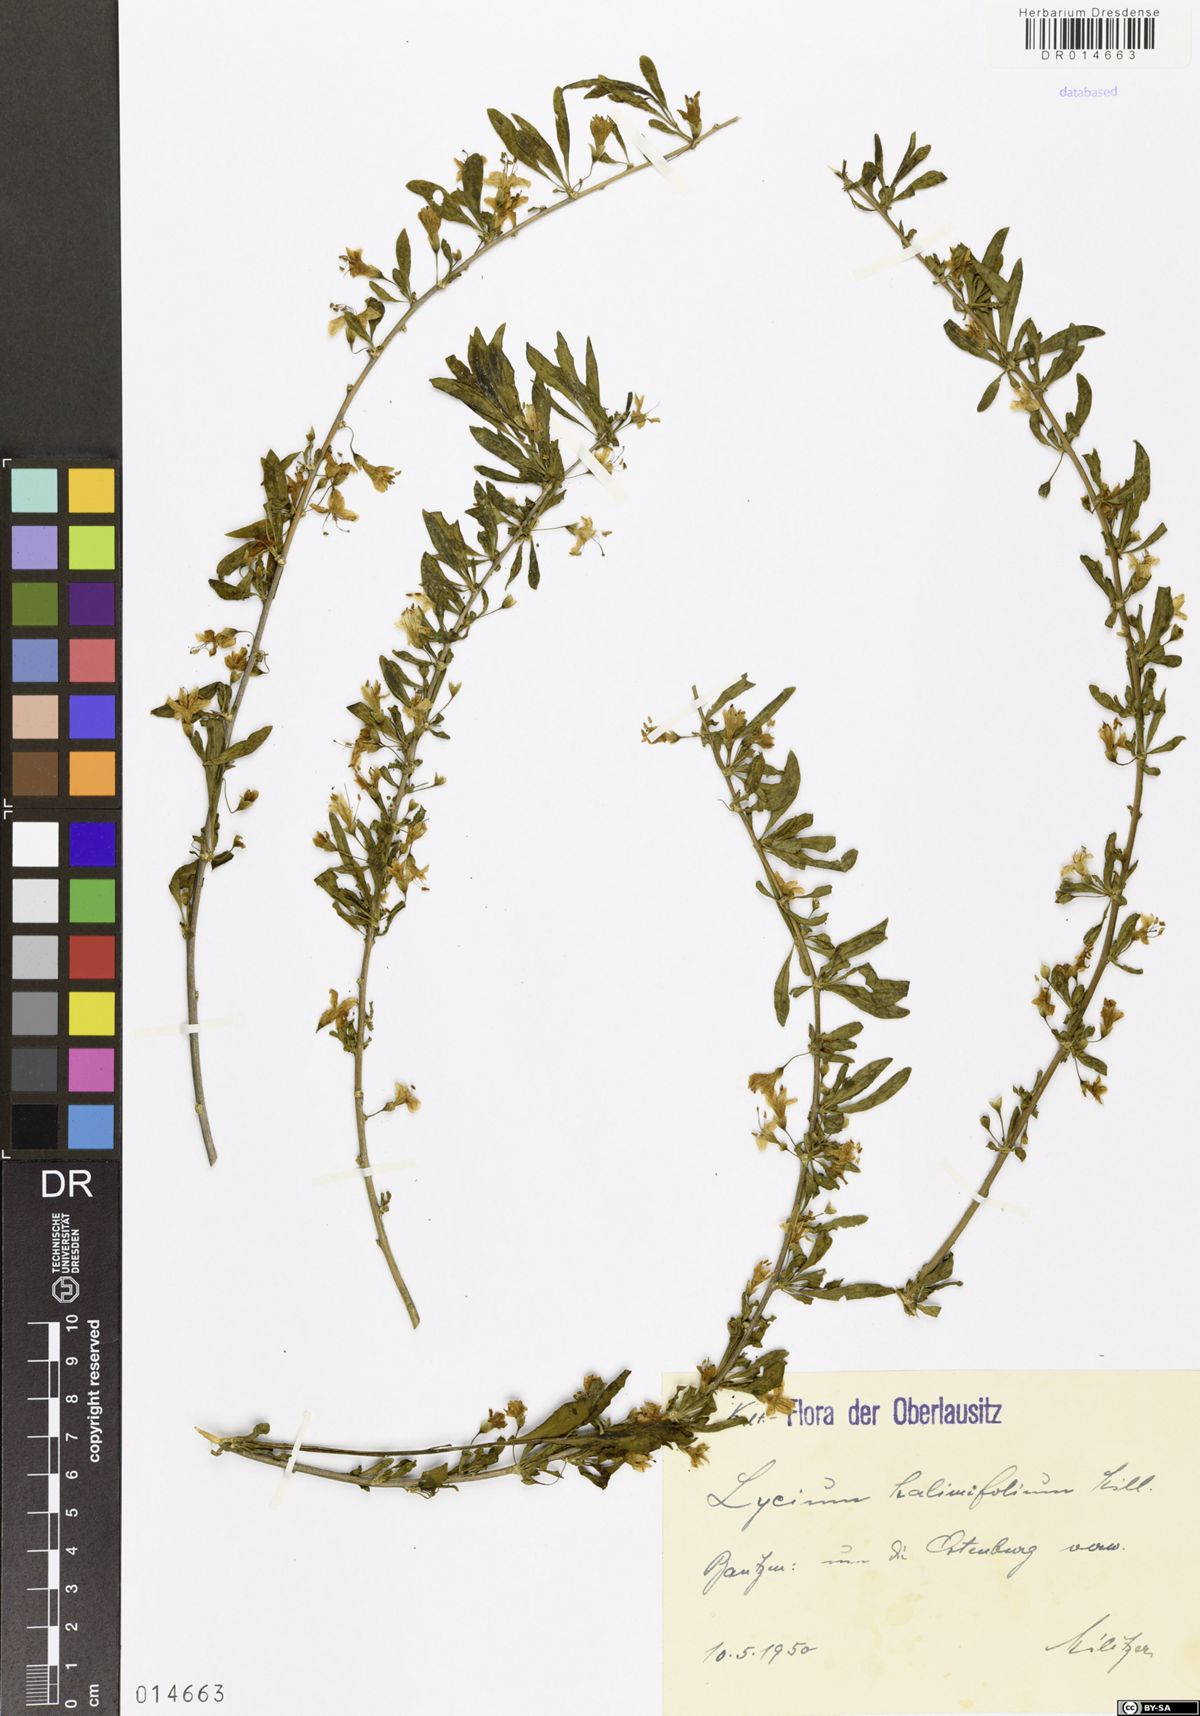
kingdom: Plantae
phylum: Tracheophyta
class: Magnoliopsida
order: Solanales
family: Solanaceae
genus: Lycium
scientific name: Lycium barbarum
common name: Duke of argyll's teaplant
